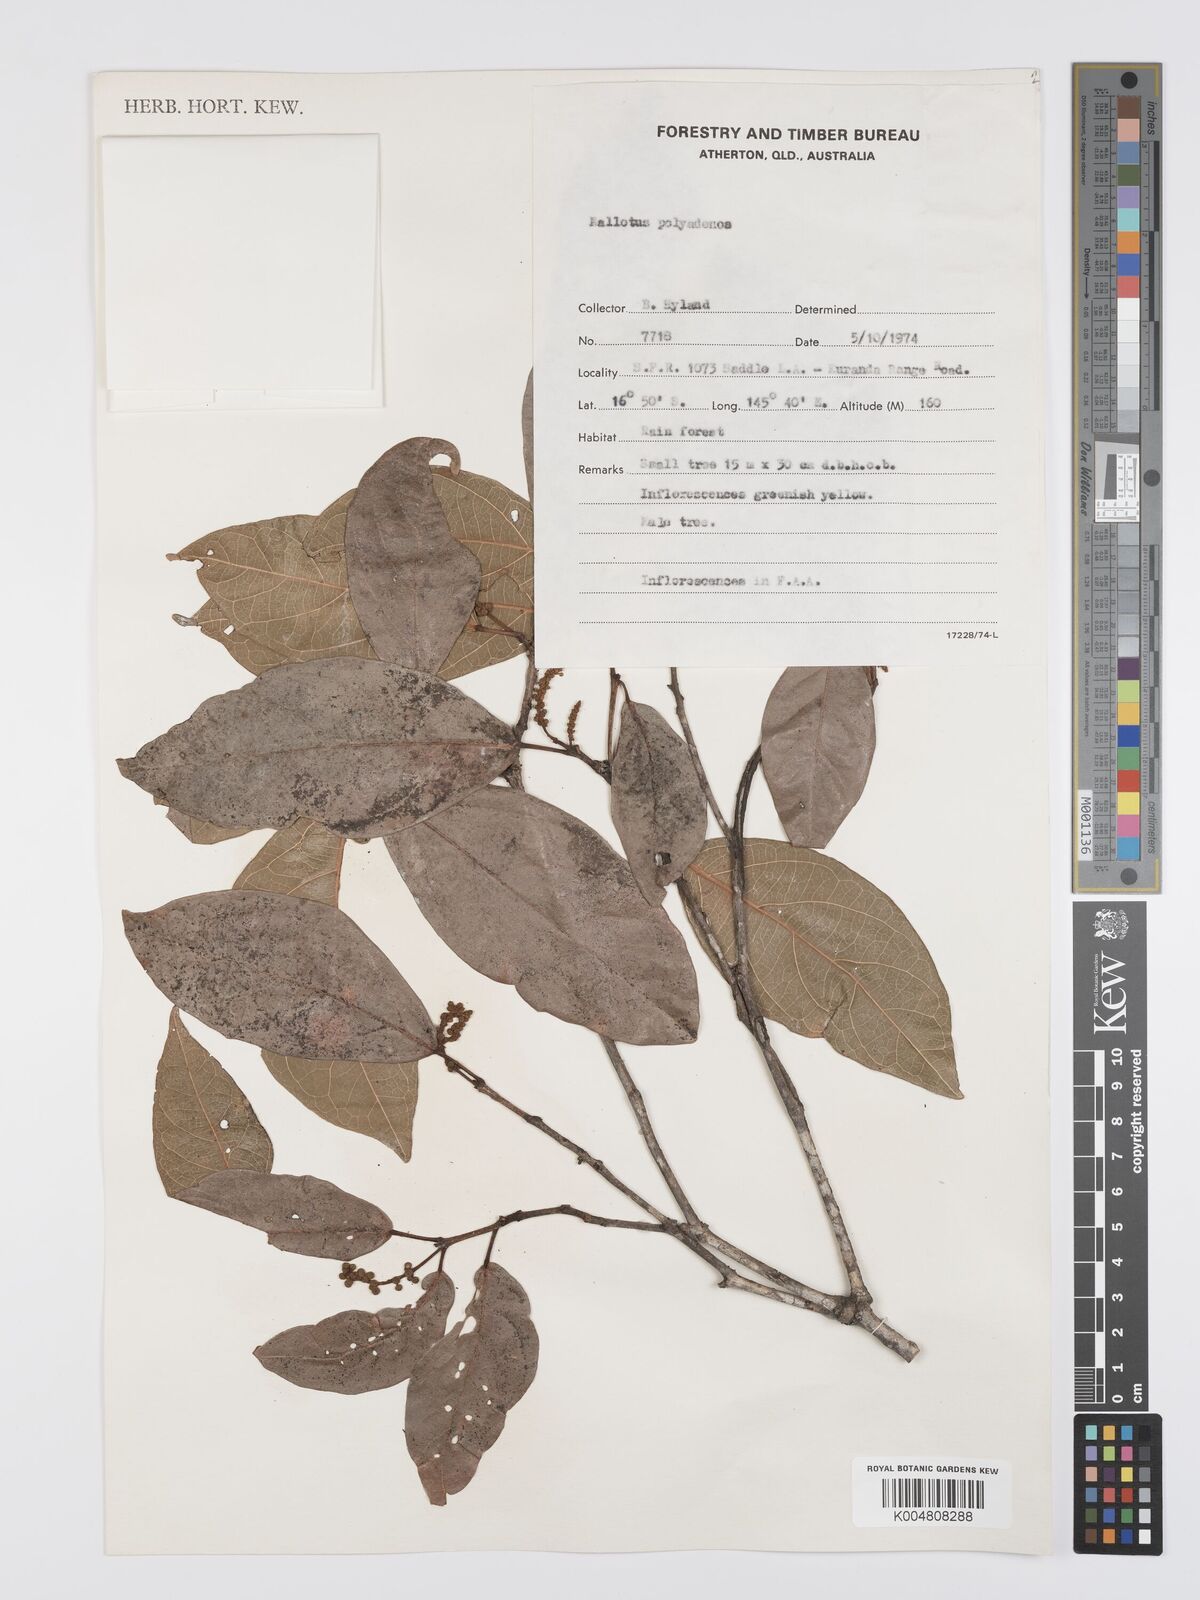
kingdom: Plantae
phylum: Tracheophyta
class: Magnoliopsida
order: Malpighiales
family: Euphorbiaceae
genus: Mallotus
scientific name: Mallotus polyadenos
